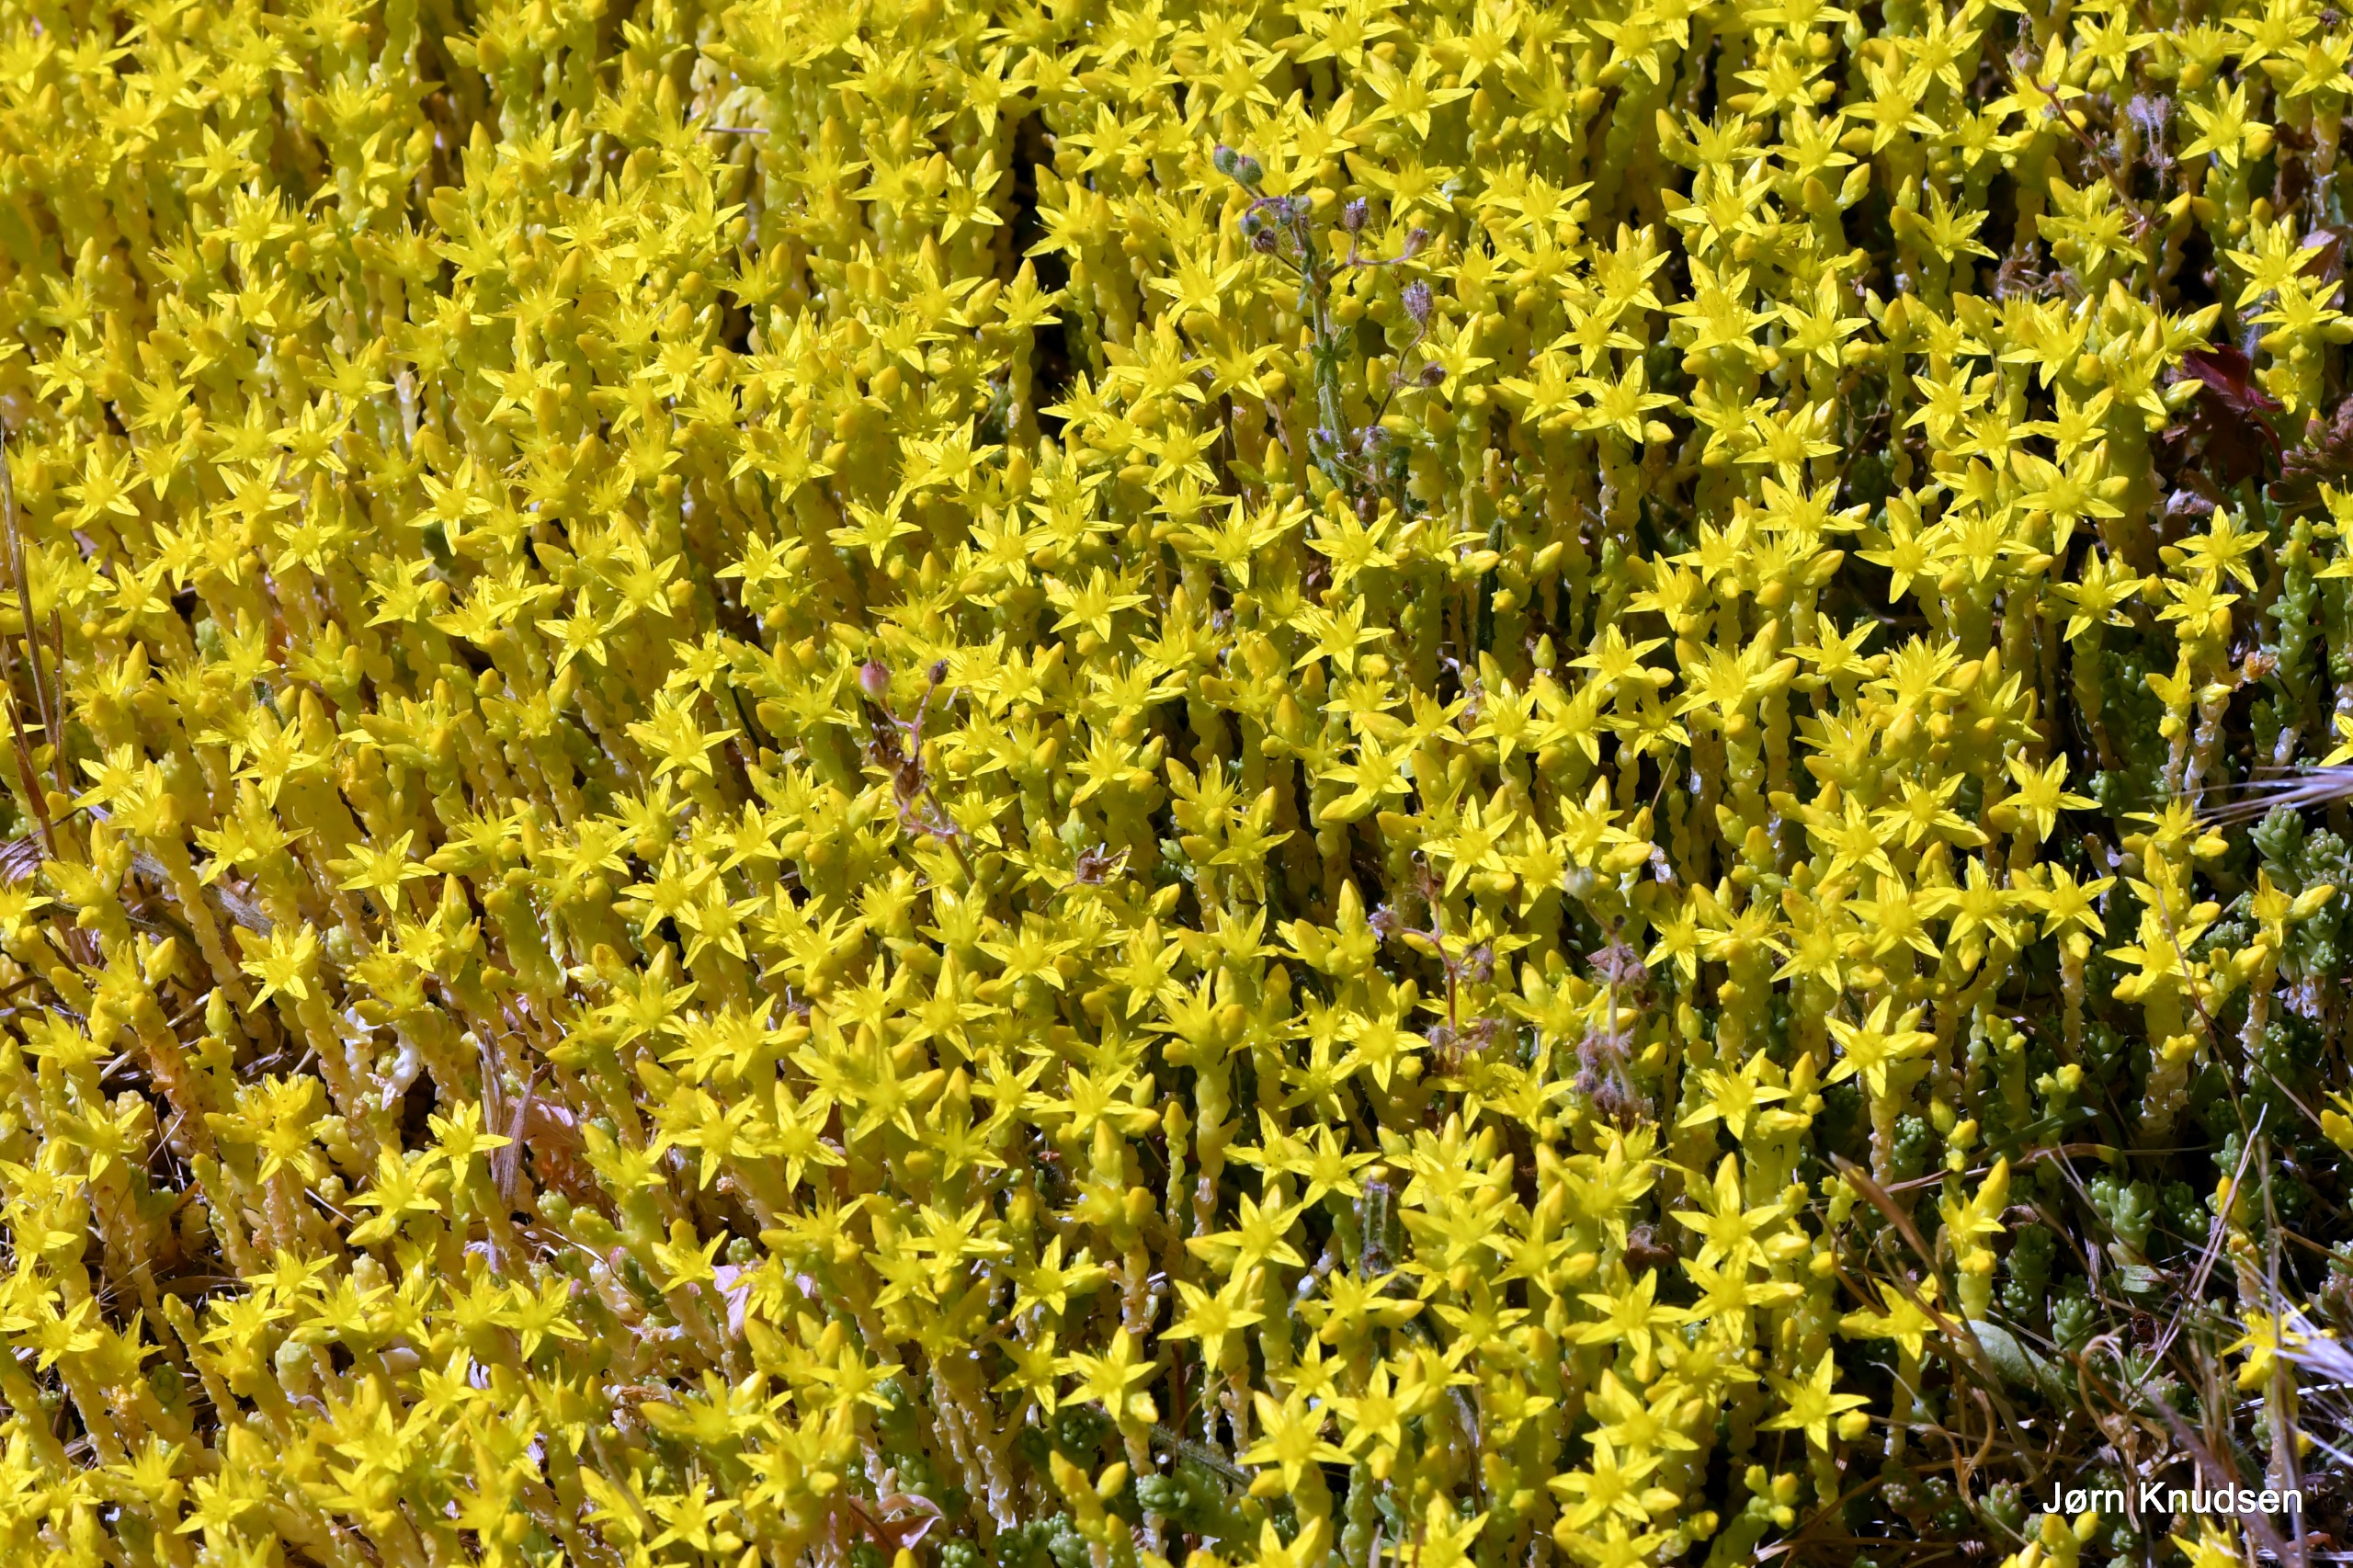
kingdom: Plantae
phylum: Tracheophyta
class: Magnoliopsida
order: Saxifragales
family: Crassulaceae
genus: Sedum
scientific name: Sedum acre
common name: Bidende stenurt
